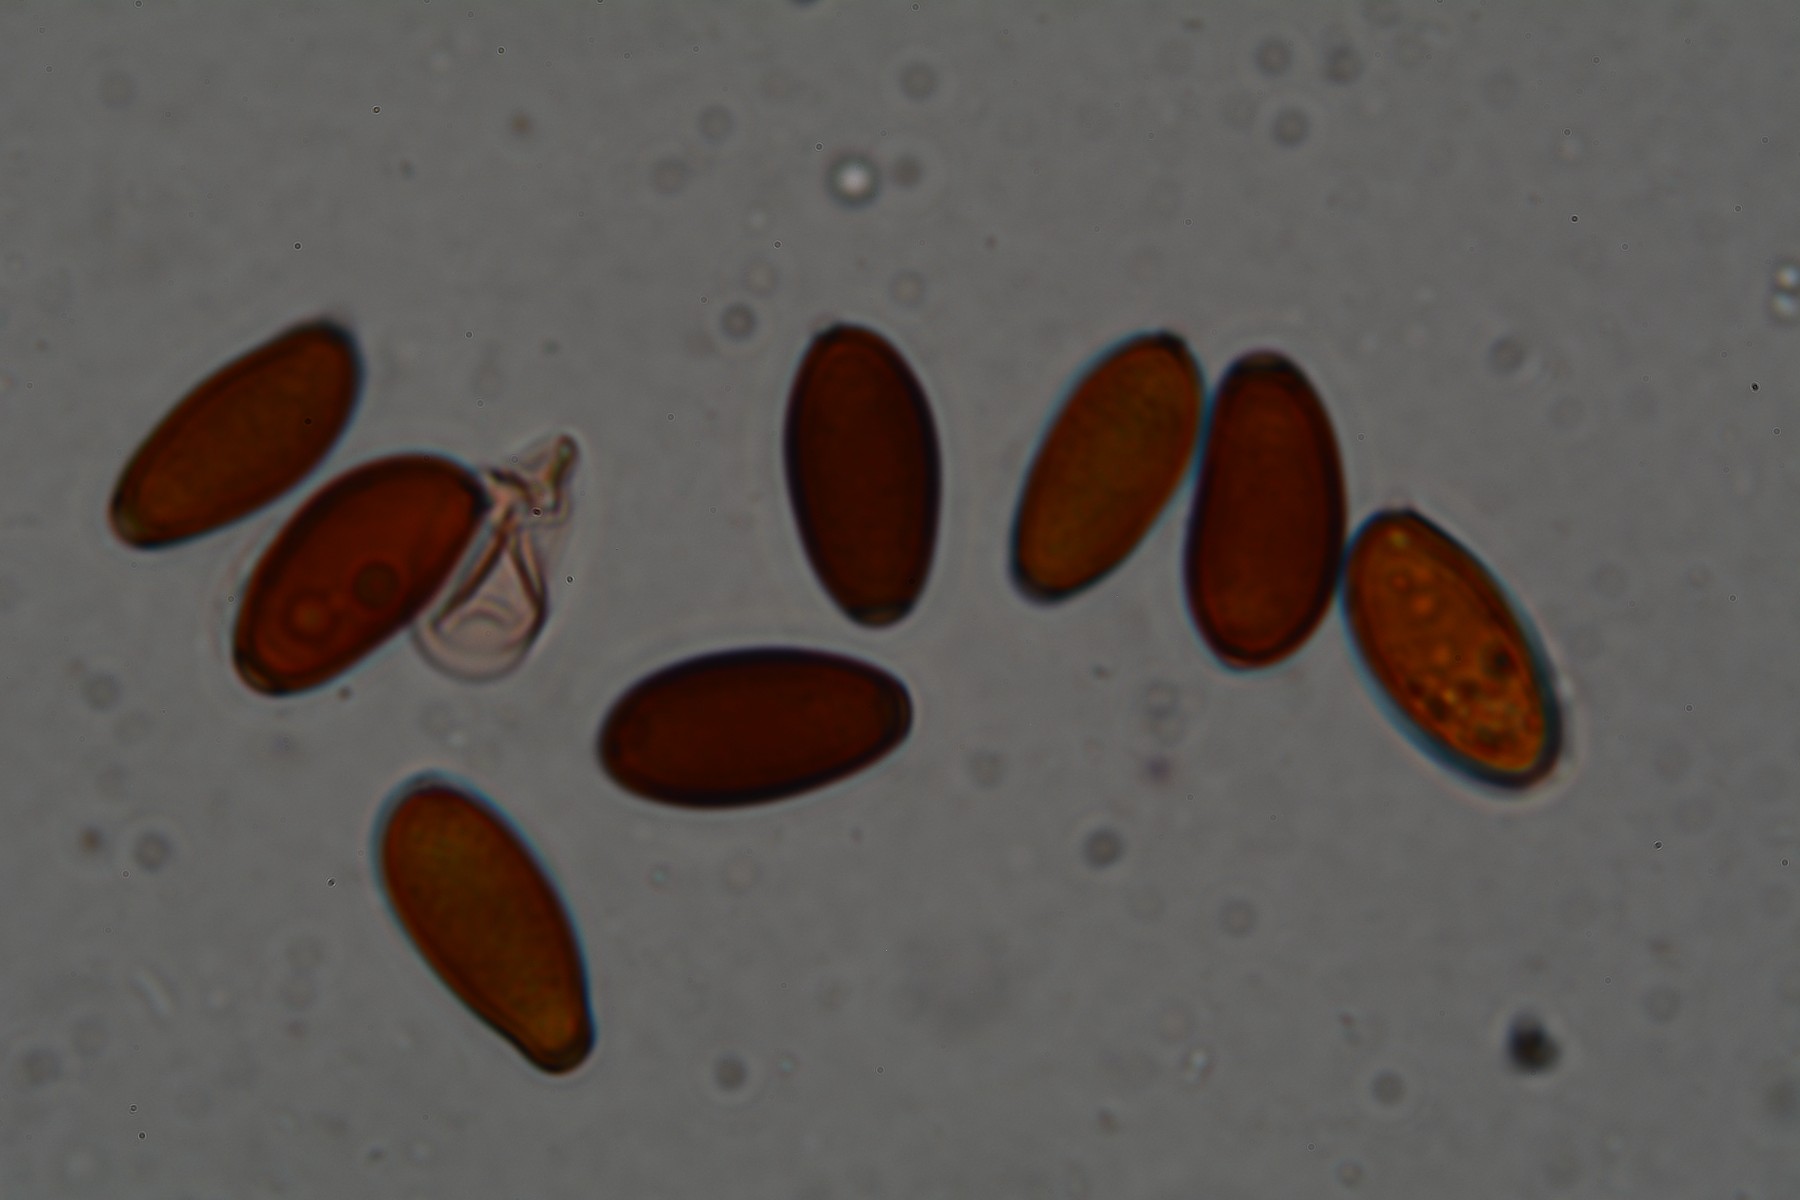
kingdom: Fungi
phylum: Basidiomycota
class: Agaricomycetes
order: Agaricales
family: Psathyrellaceae
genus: Psathyrella
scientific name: Psathyrella corrugis
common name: rødægget mørkhat
